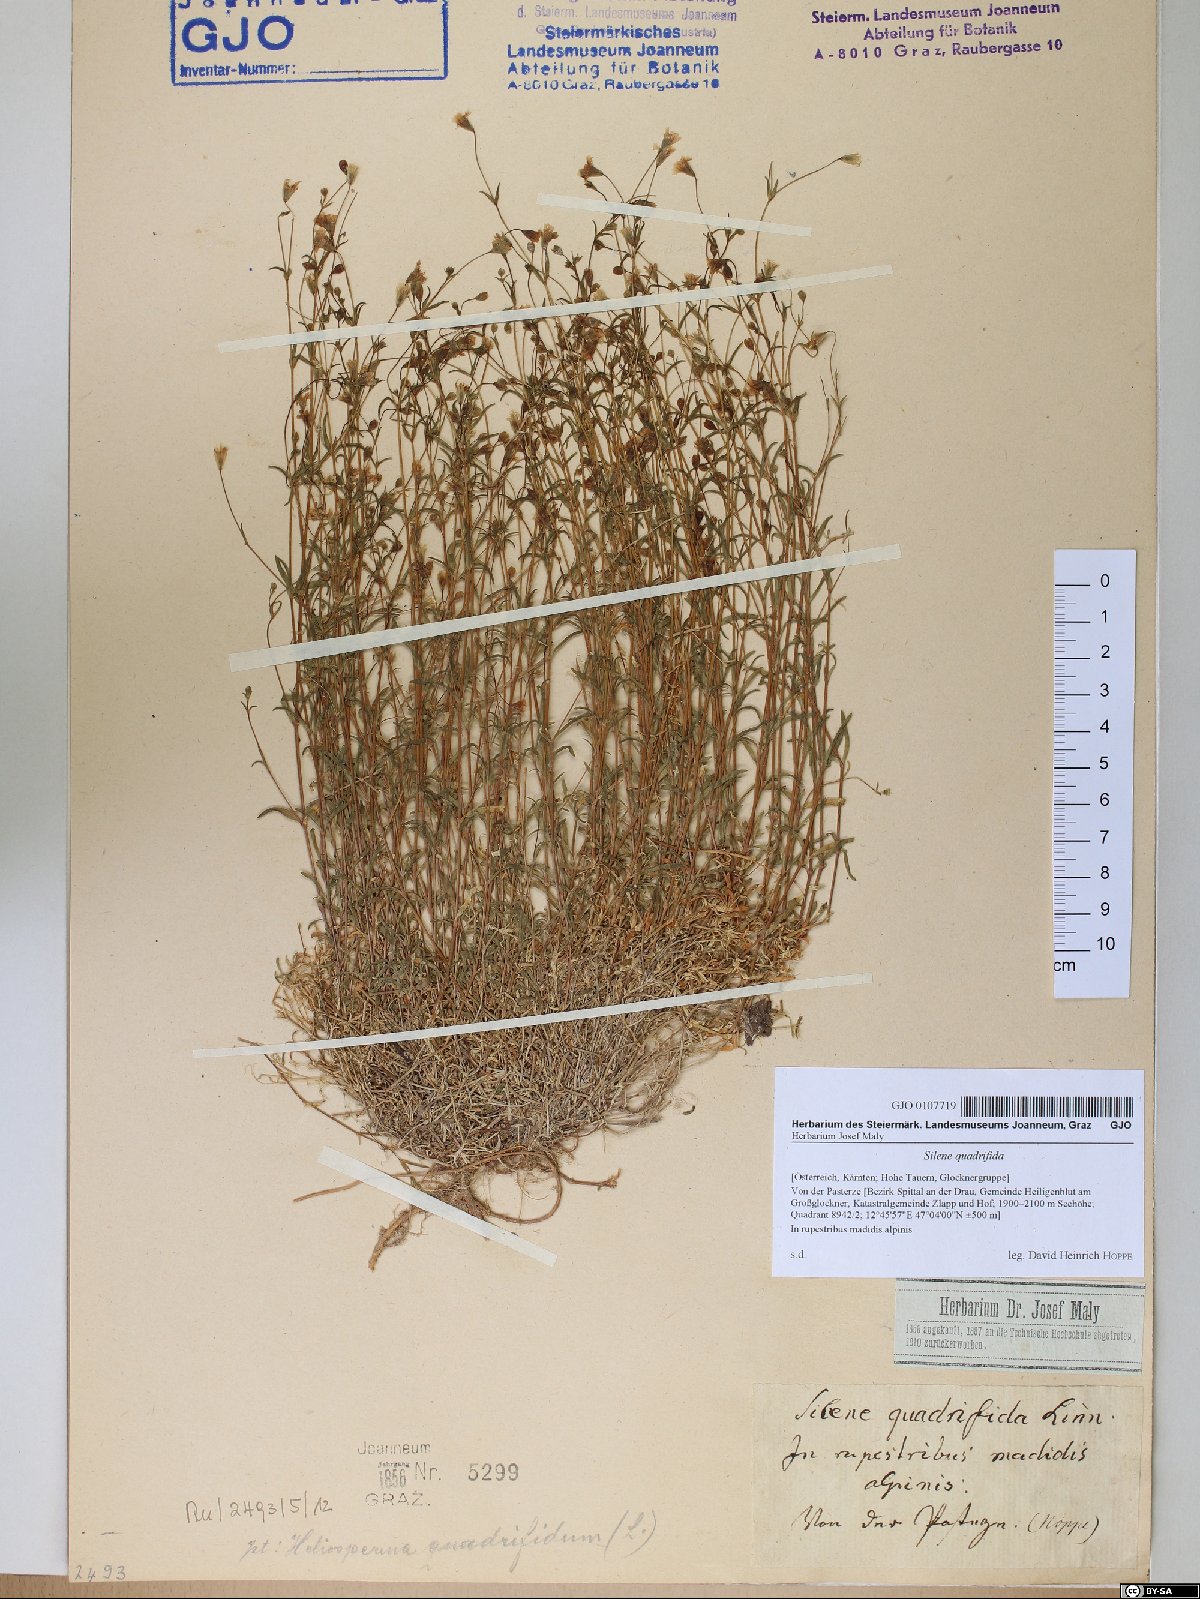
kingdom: Plantae
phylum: Tracheophyta
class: Magnoliopsida
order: Caryophyllales
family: Caryophyllaceae
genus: Heliosperma
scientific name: Heliosperma alpestre
